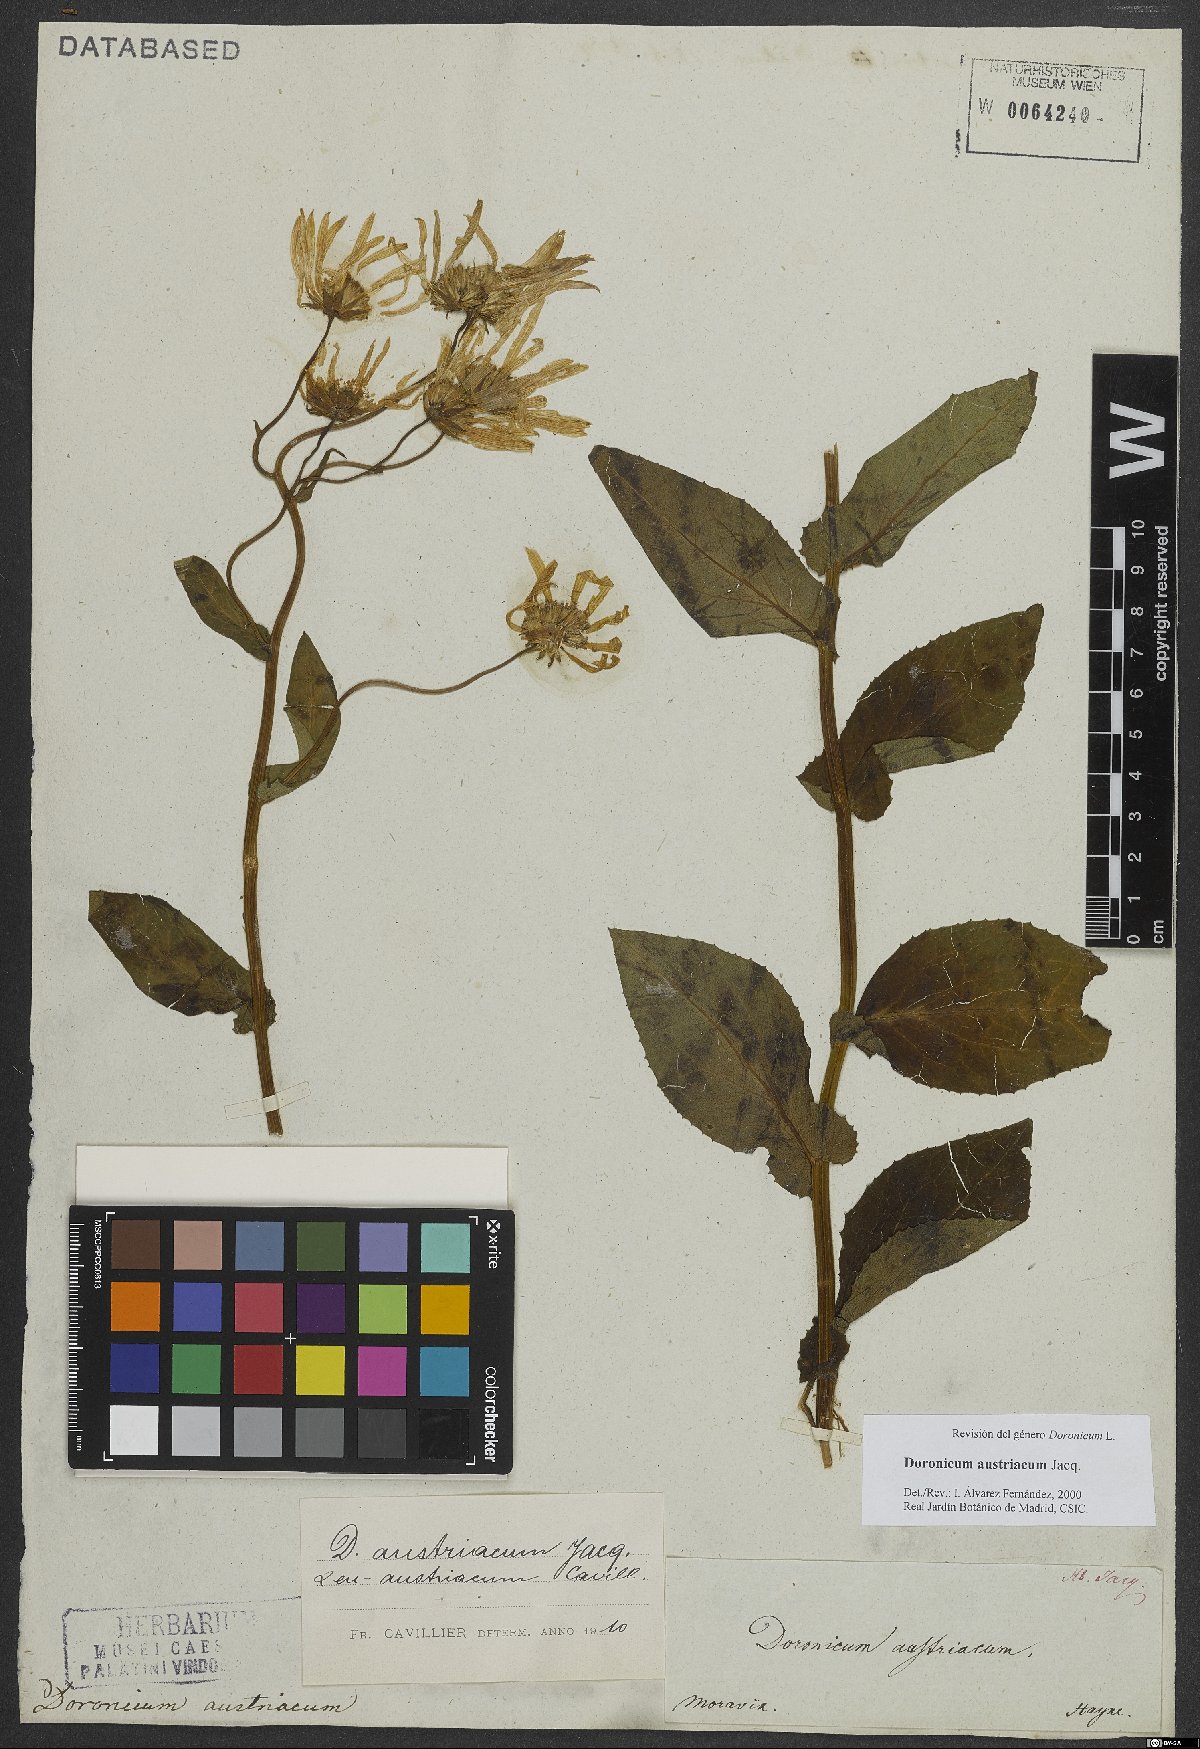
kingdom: Plantae
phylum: Tracheophyta
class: Magnoliopsida
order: Asterales
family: Asteraceae
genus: Doronicum
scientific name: Doronicum austriacum
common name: Austrian leopard's-bane
